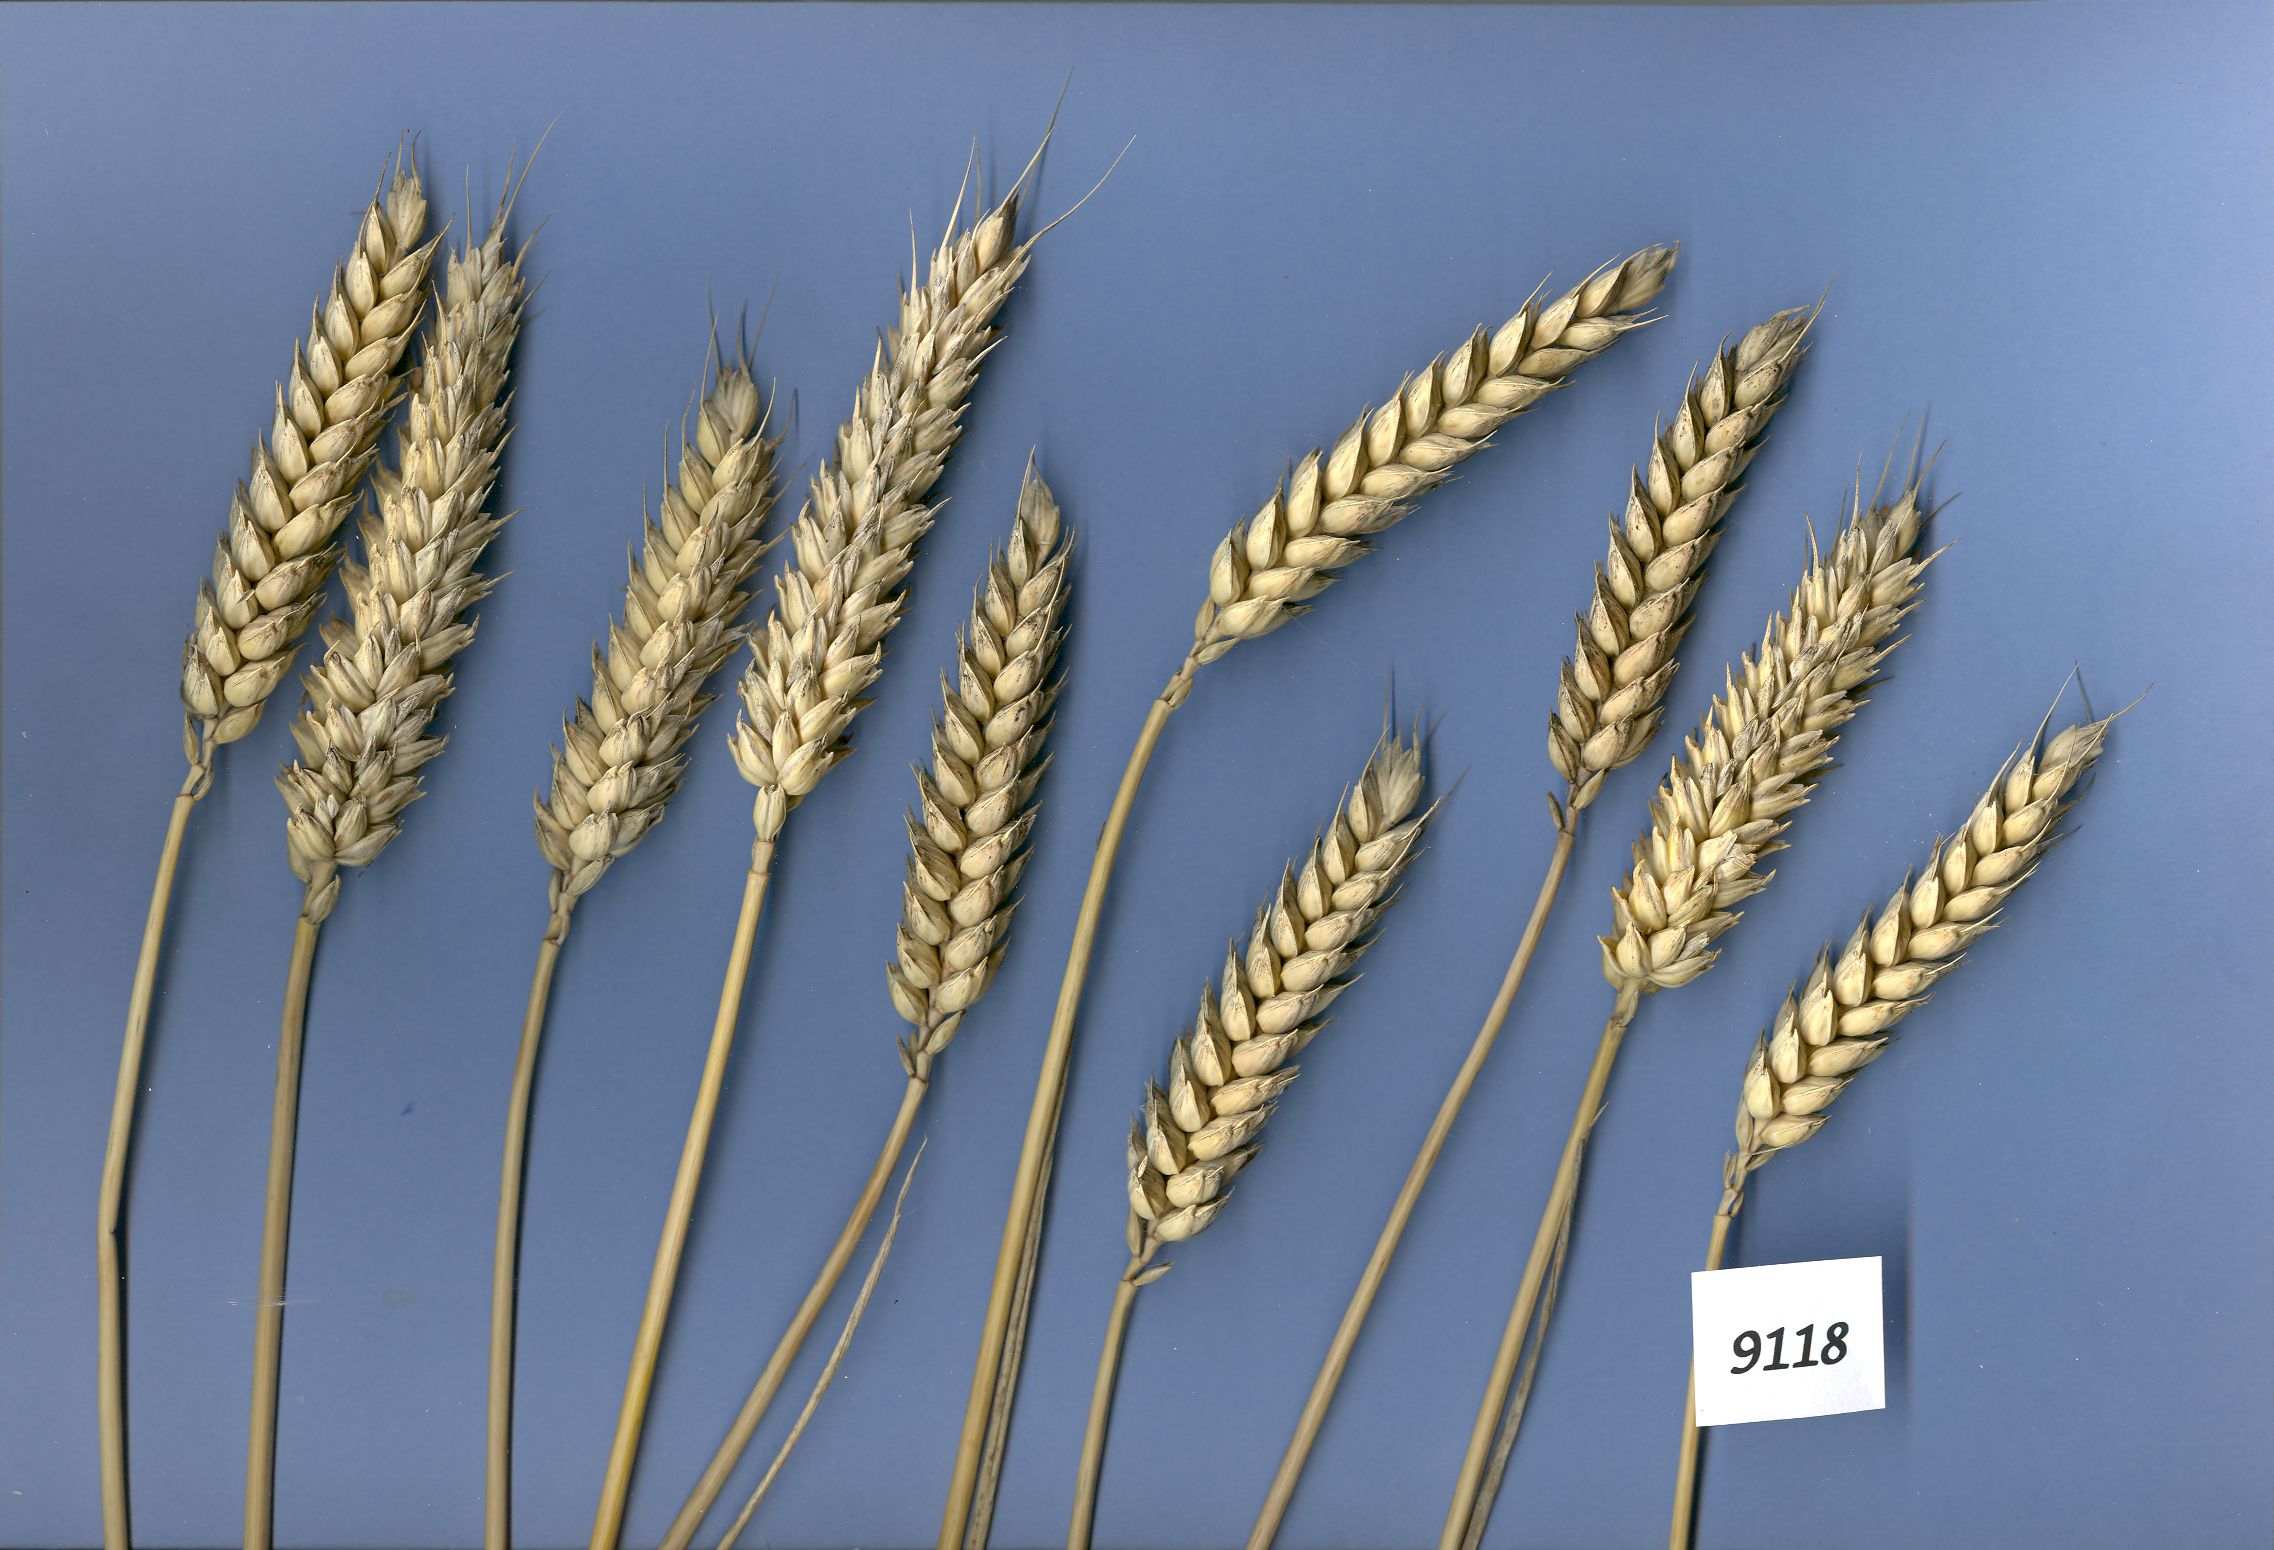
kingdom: Plantae
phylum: Tracheophyta
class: Liliopsida
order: Poales
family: Poaceae
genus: Triticum
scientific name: Triticum aestivum
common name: Common wheat
